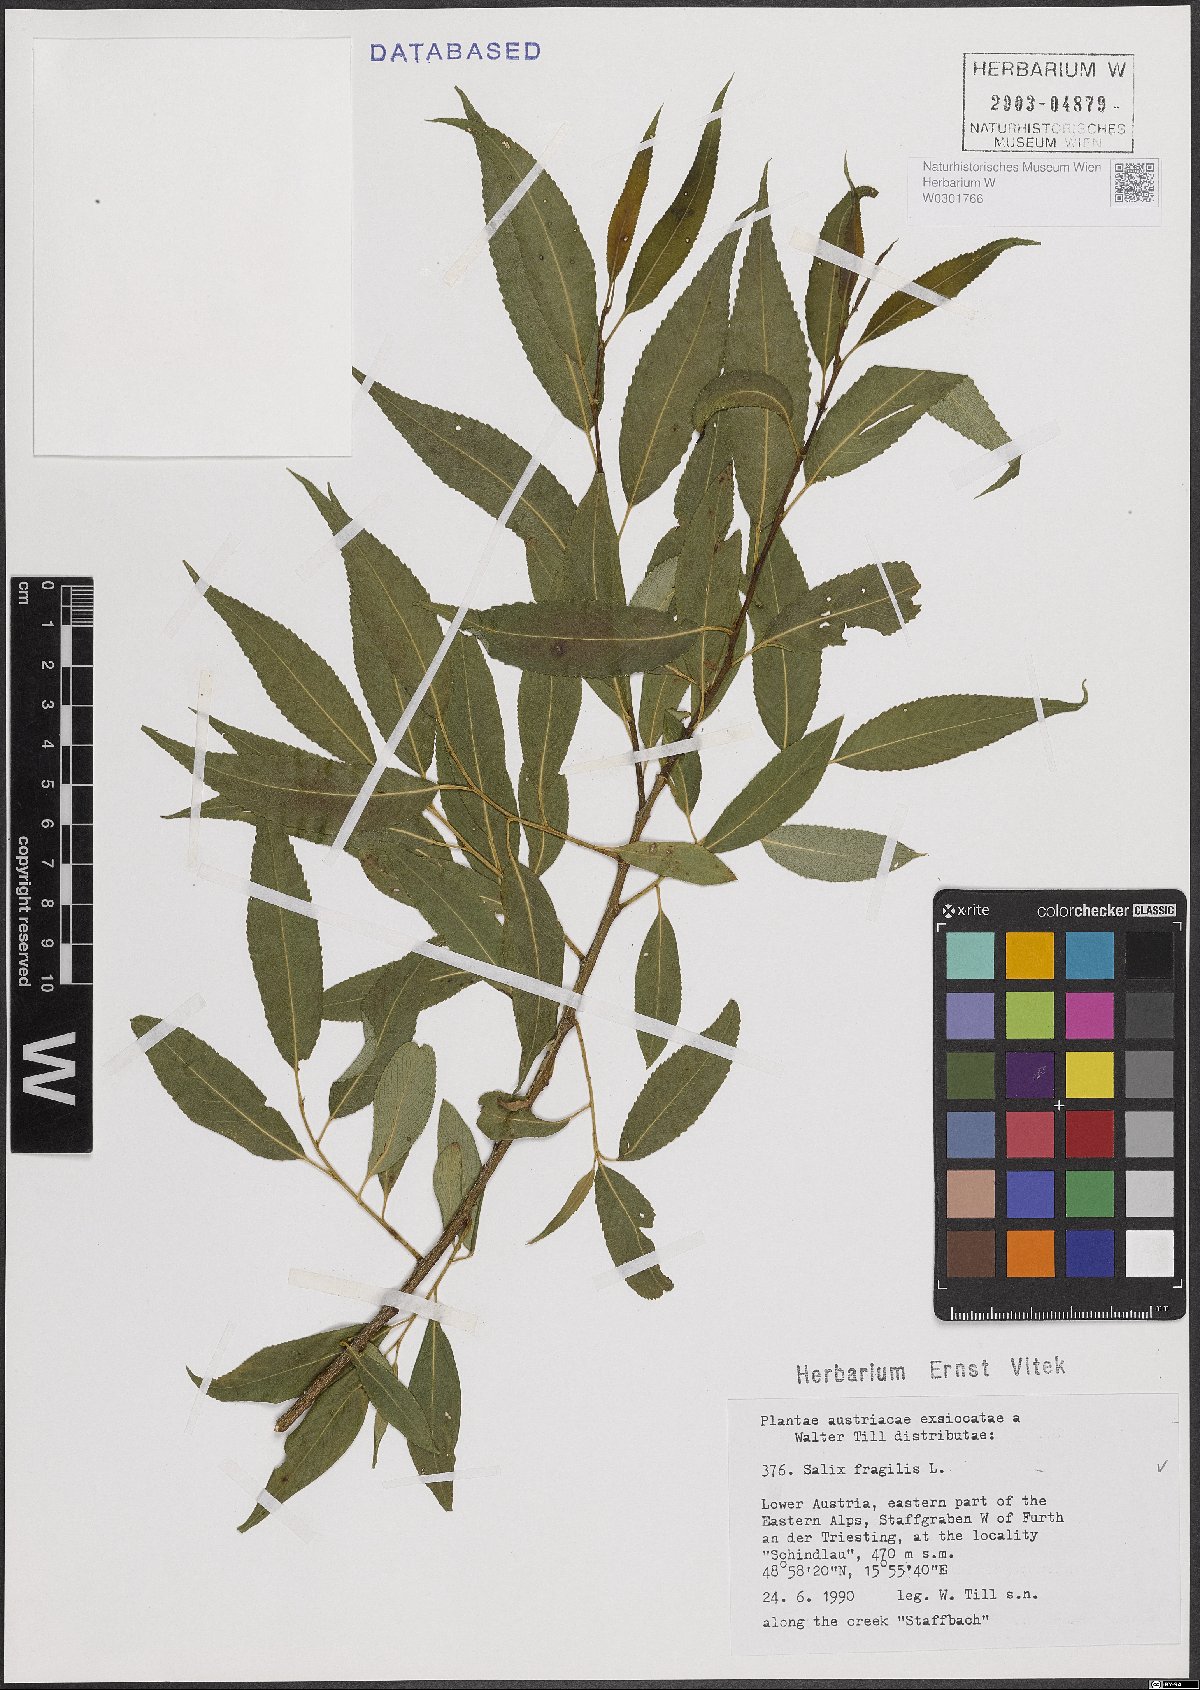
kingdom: Plantae
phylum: Tracheophyta
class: Magnoliopsida
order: Malpighiales
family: Salicaceae
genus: Salix
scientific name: Salix fragilis
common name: Crack willow
